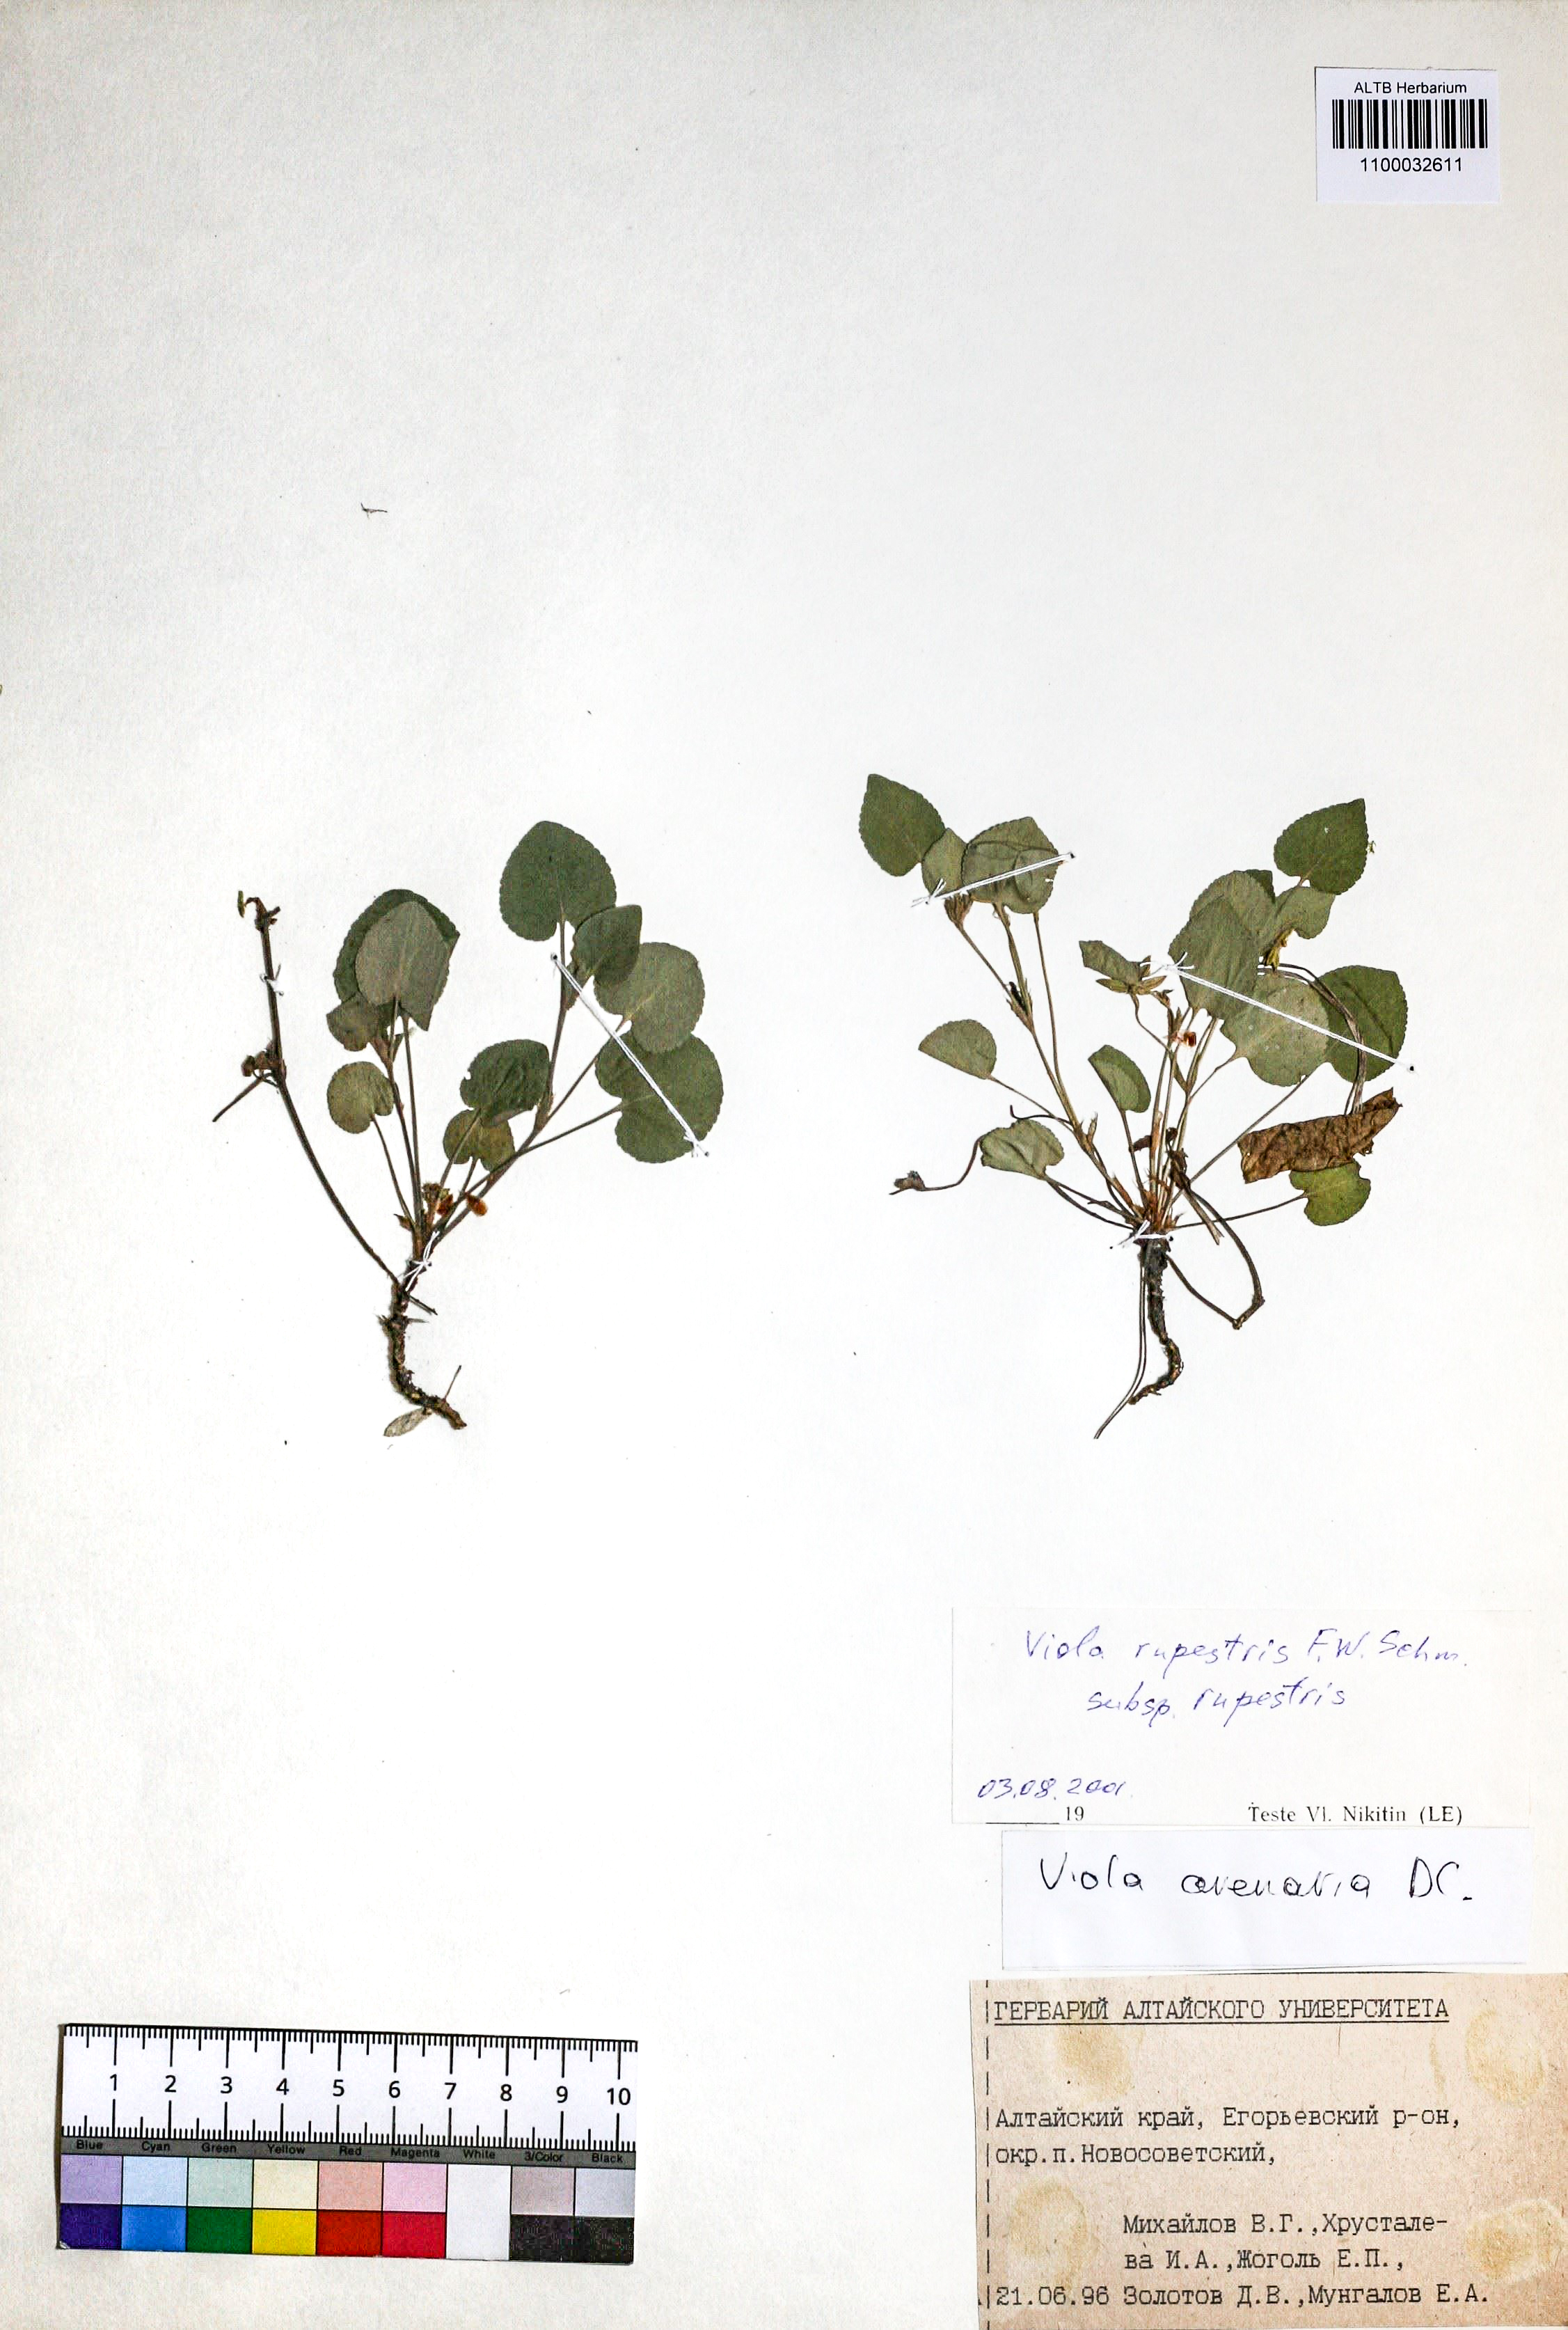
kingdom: Plantae
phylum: Tracheophyta
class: Magnoliopsida
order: Malpighiales
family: Violaceae
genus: Viola
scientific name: Viola rupestris
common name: Teesdale violet
